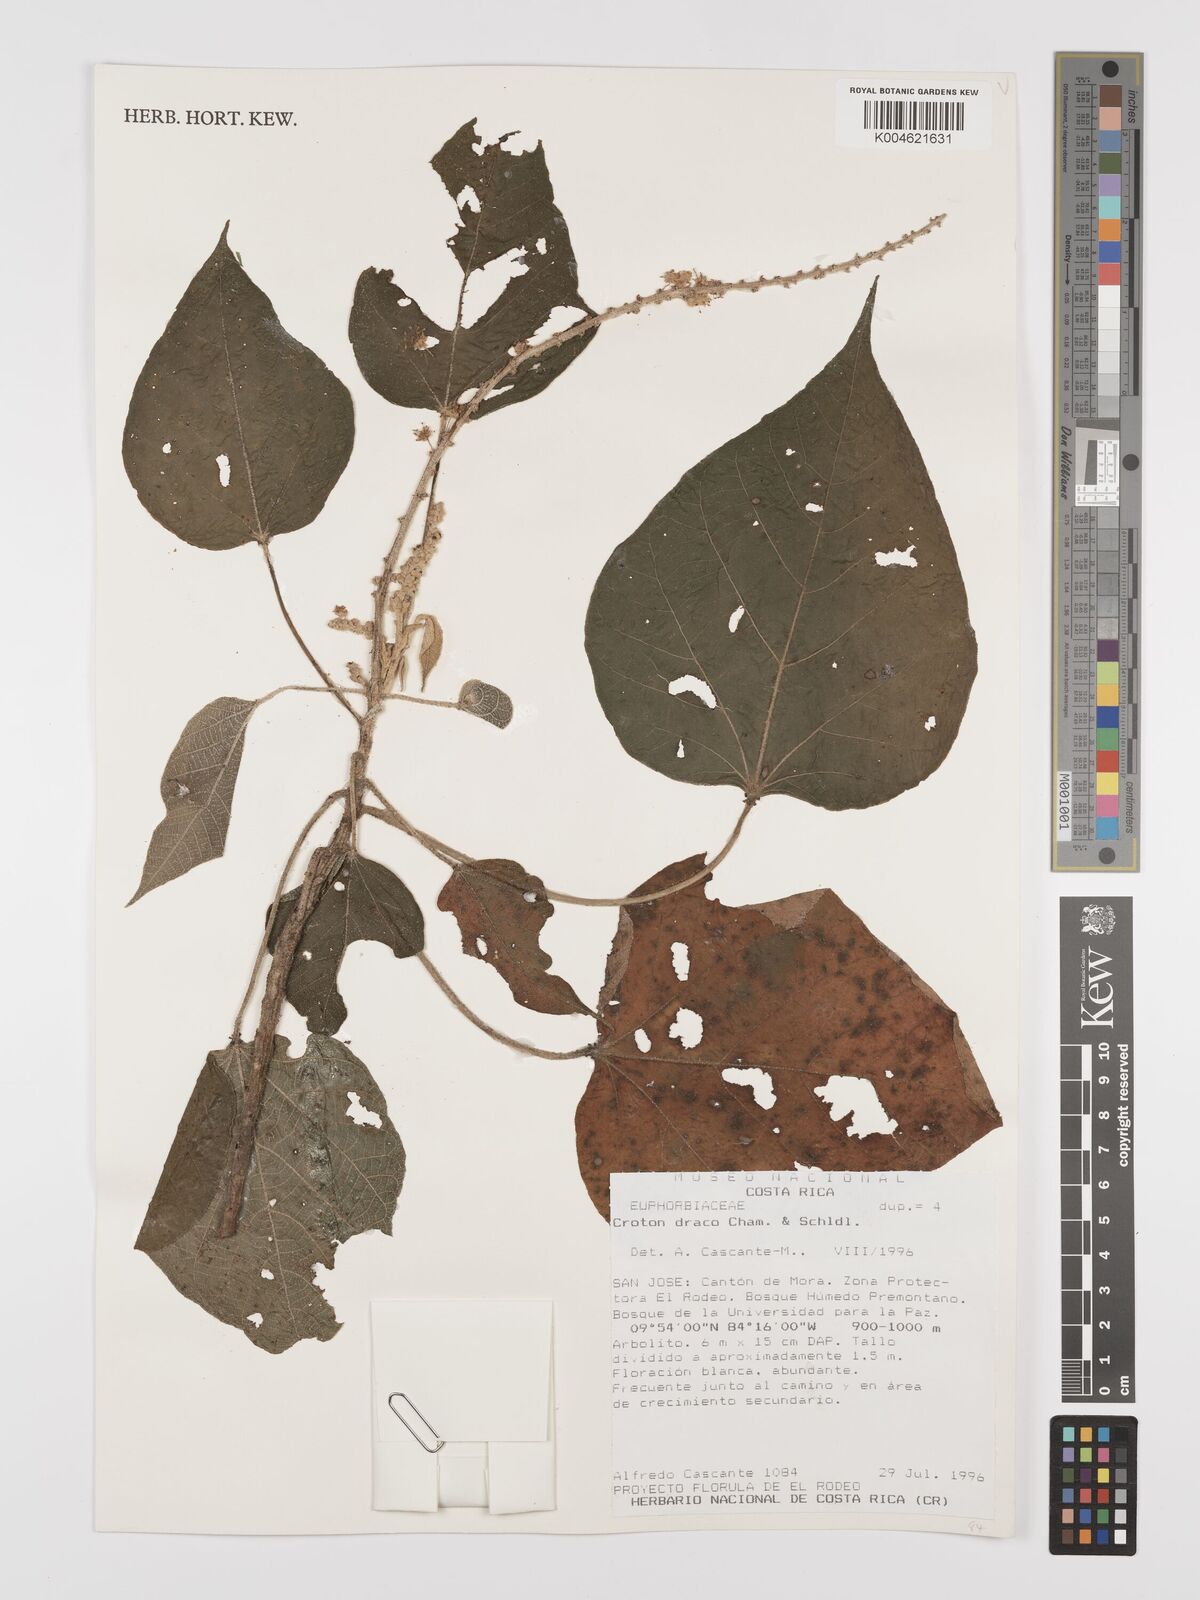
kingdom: Plantae
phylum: Tracheophyta
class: Magnoliopsida
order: Malpighiales
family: Euphorbiaceae
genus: Croton
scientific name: Croton draco
